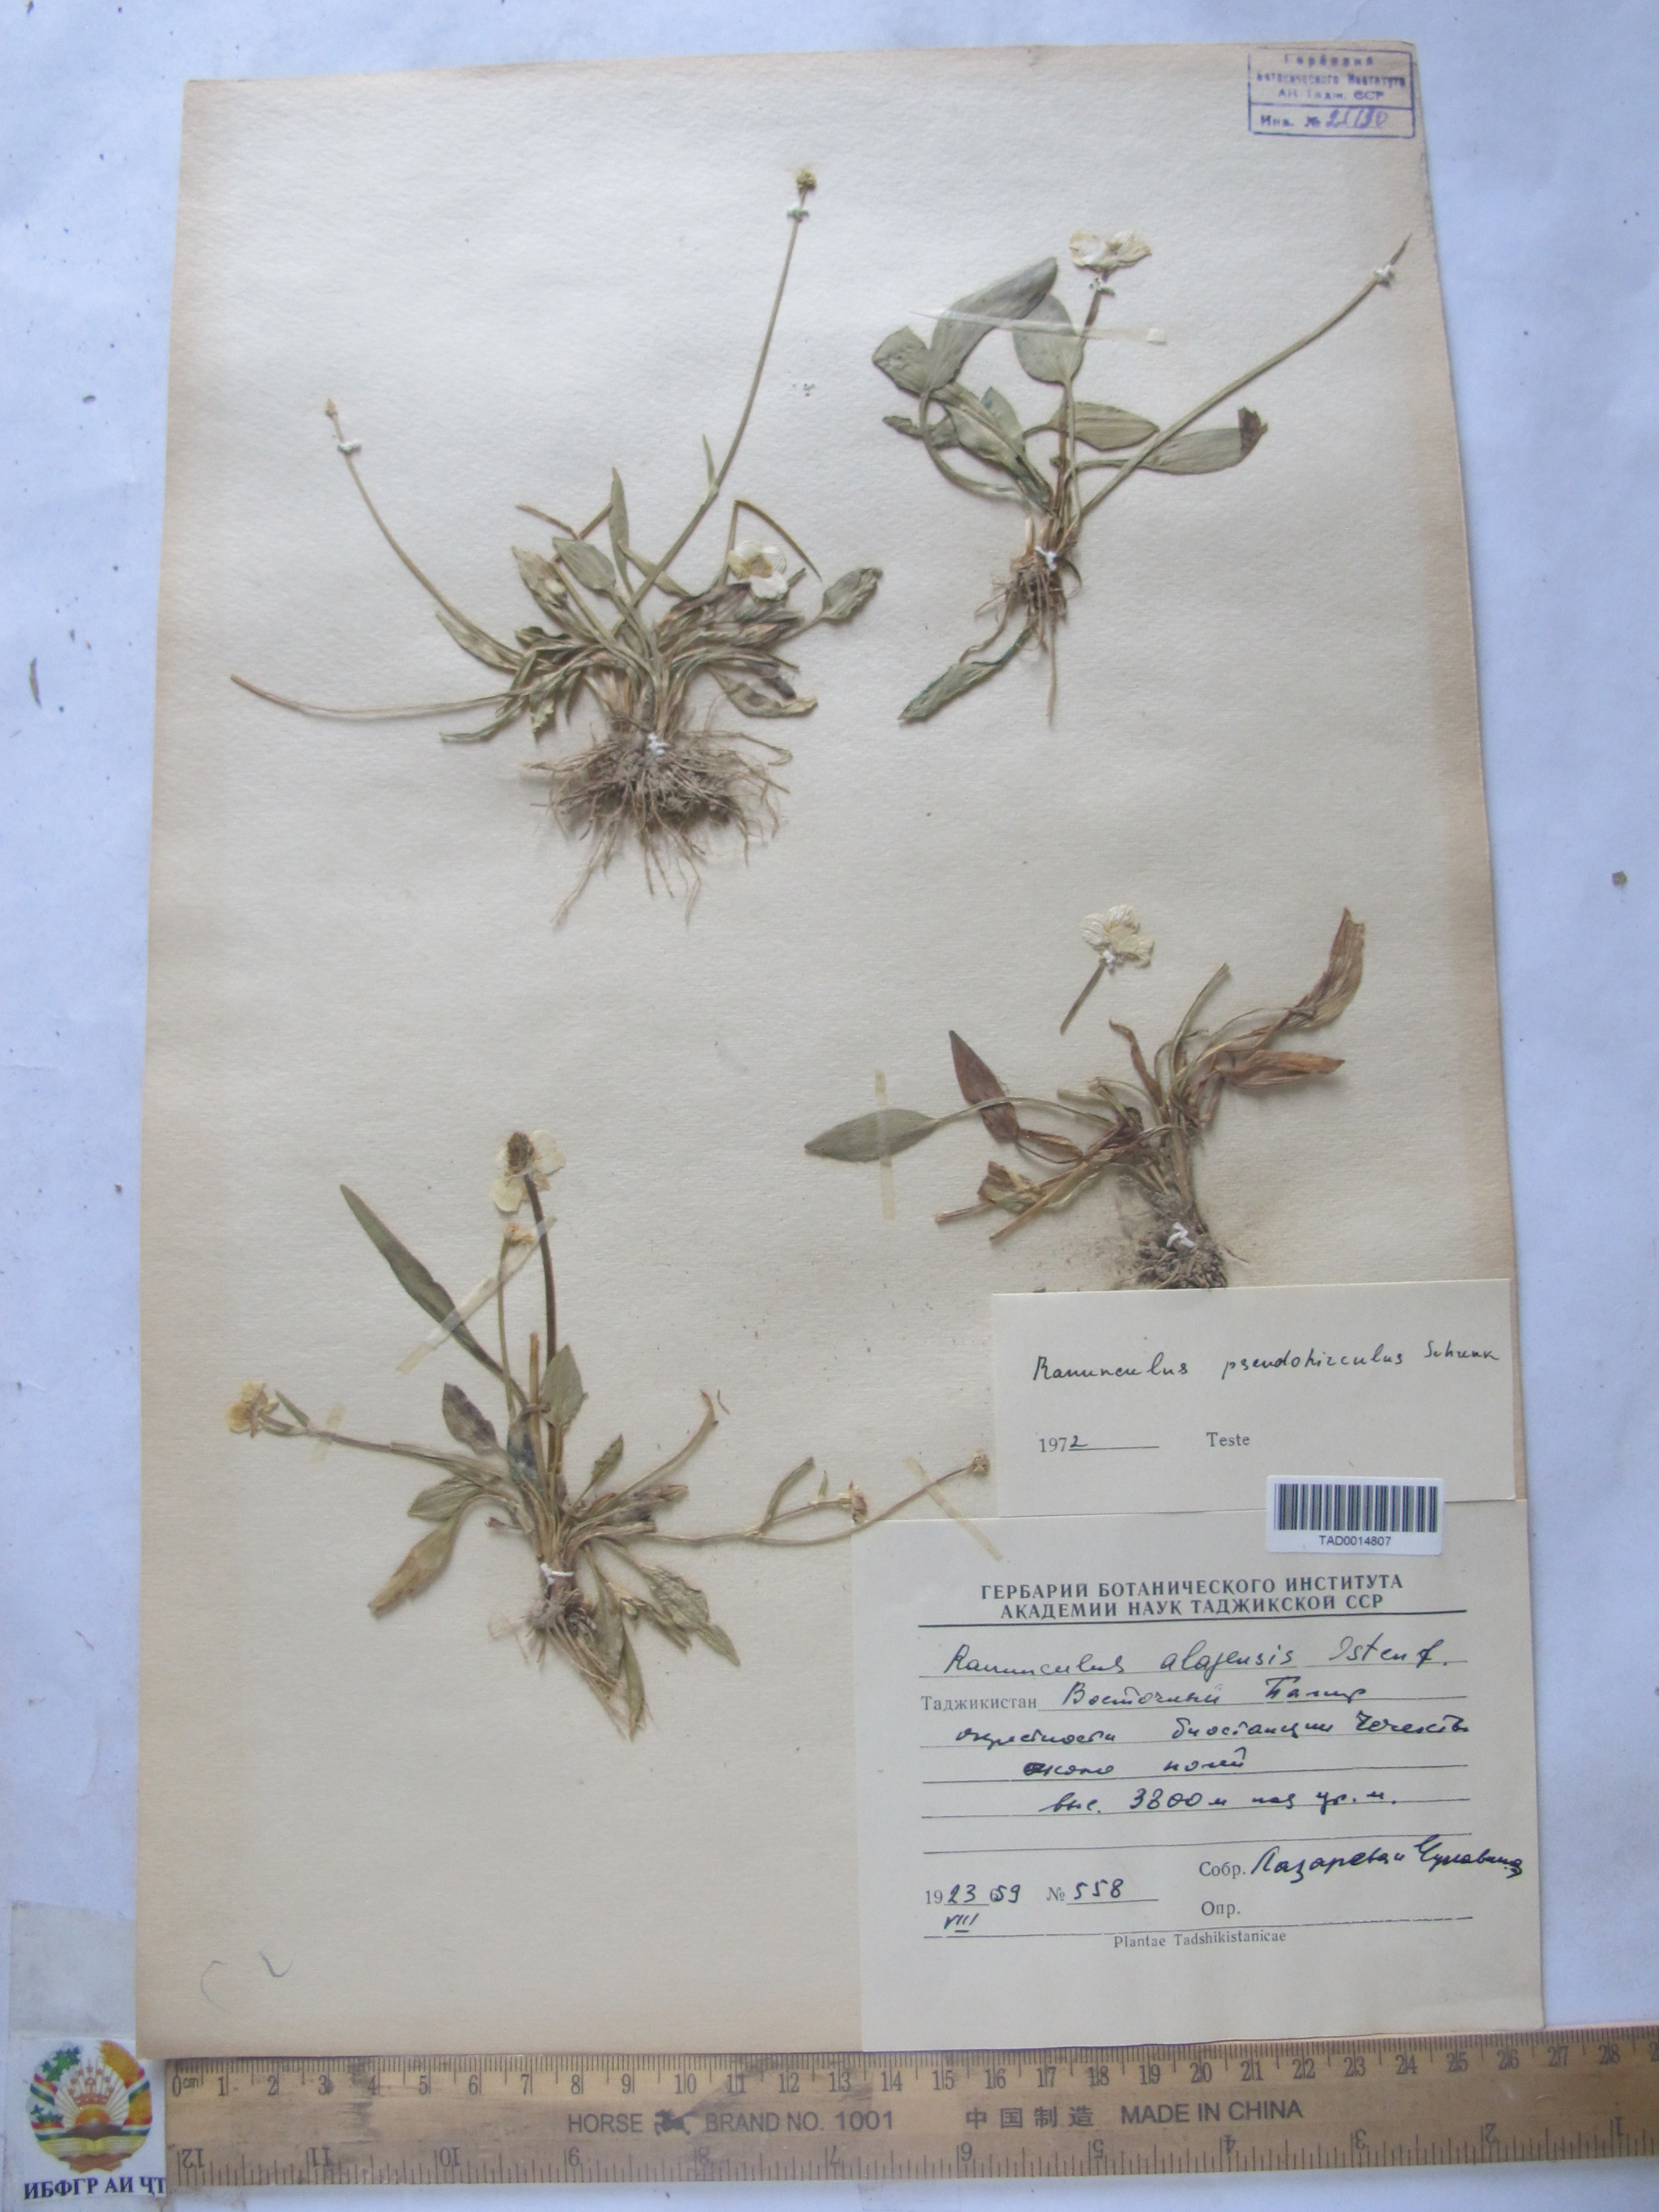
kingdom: Plantae
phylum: Tracheophyta
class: Magnoliopsida
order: Ranunculales
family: Ranunculaceae
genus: Ranunculus
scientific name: Ranunculus alaiensis
